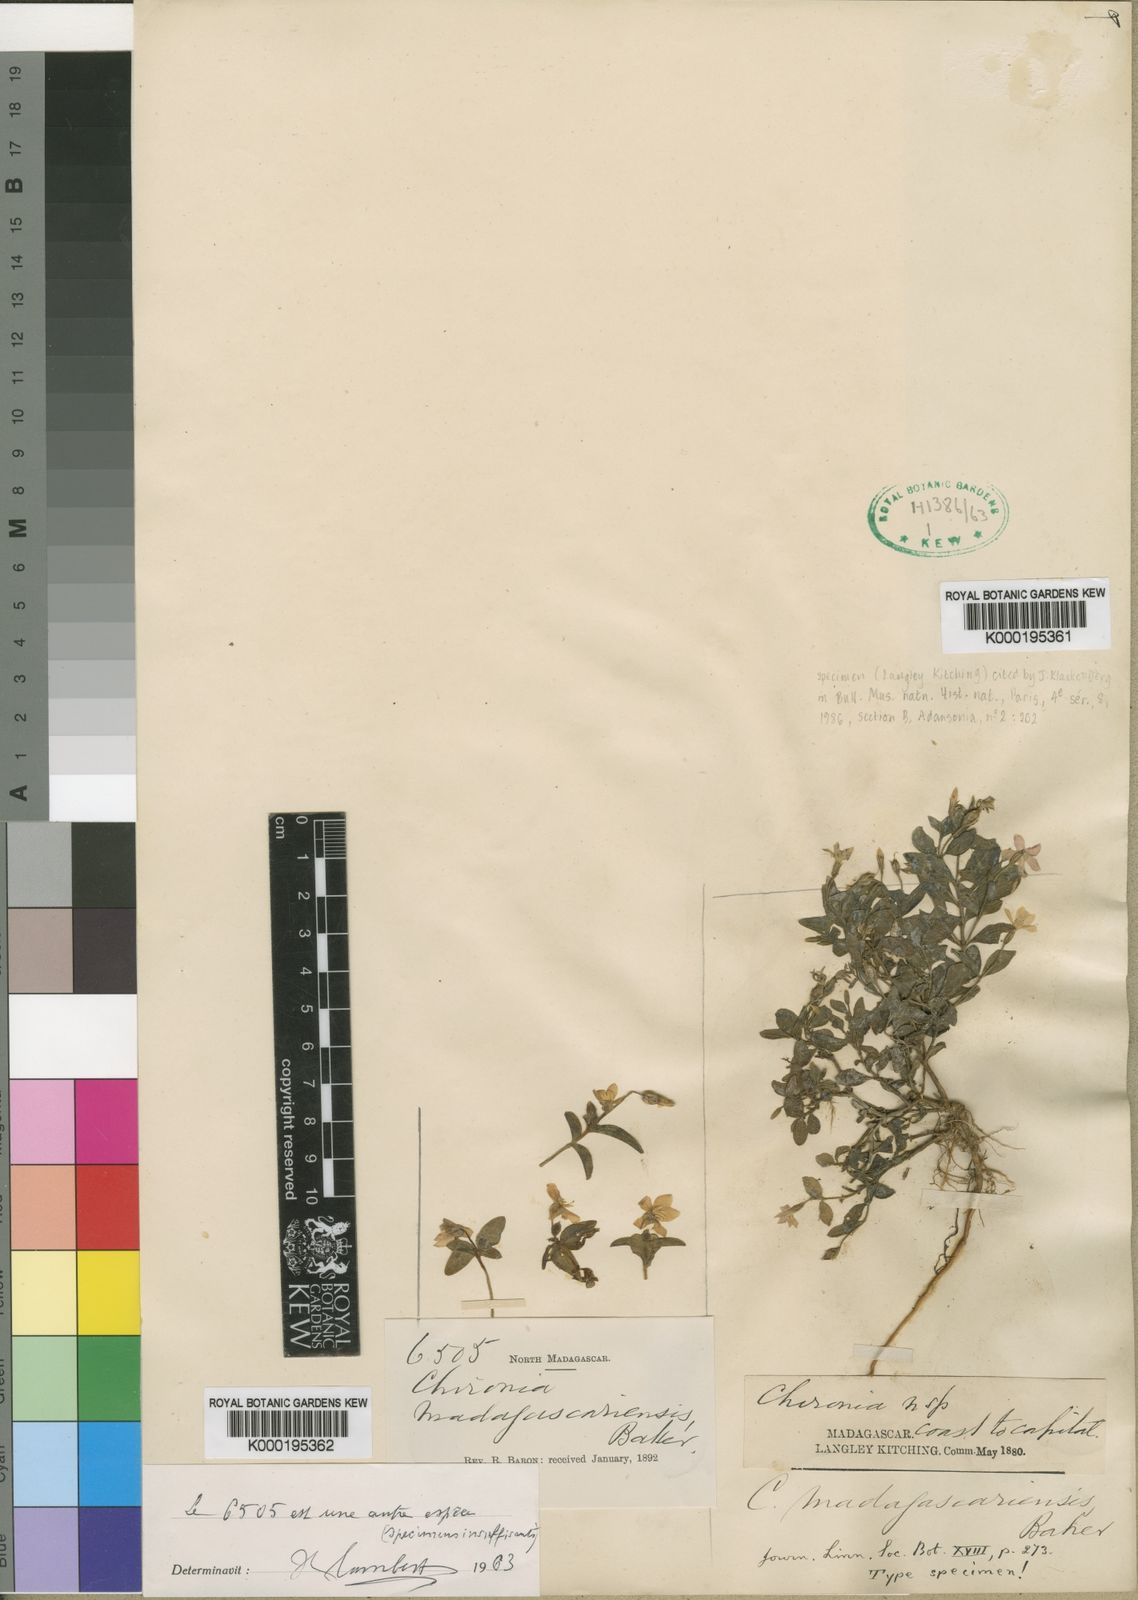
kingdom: Plantae
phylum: Tracheophyta
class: Magnoliopsida
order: Gentianales
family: Gentianaceae
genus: Ornichia
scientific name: Ornichia madagascariensis
